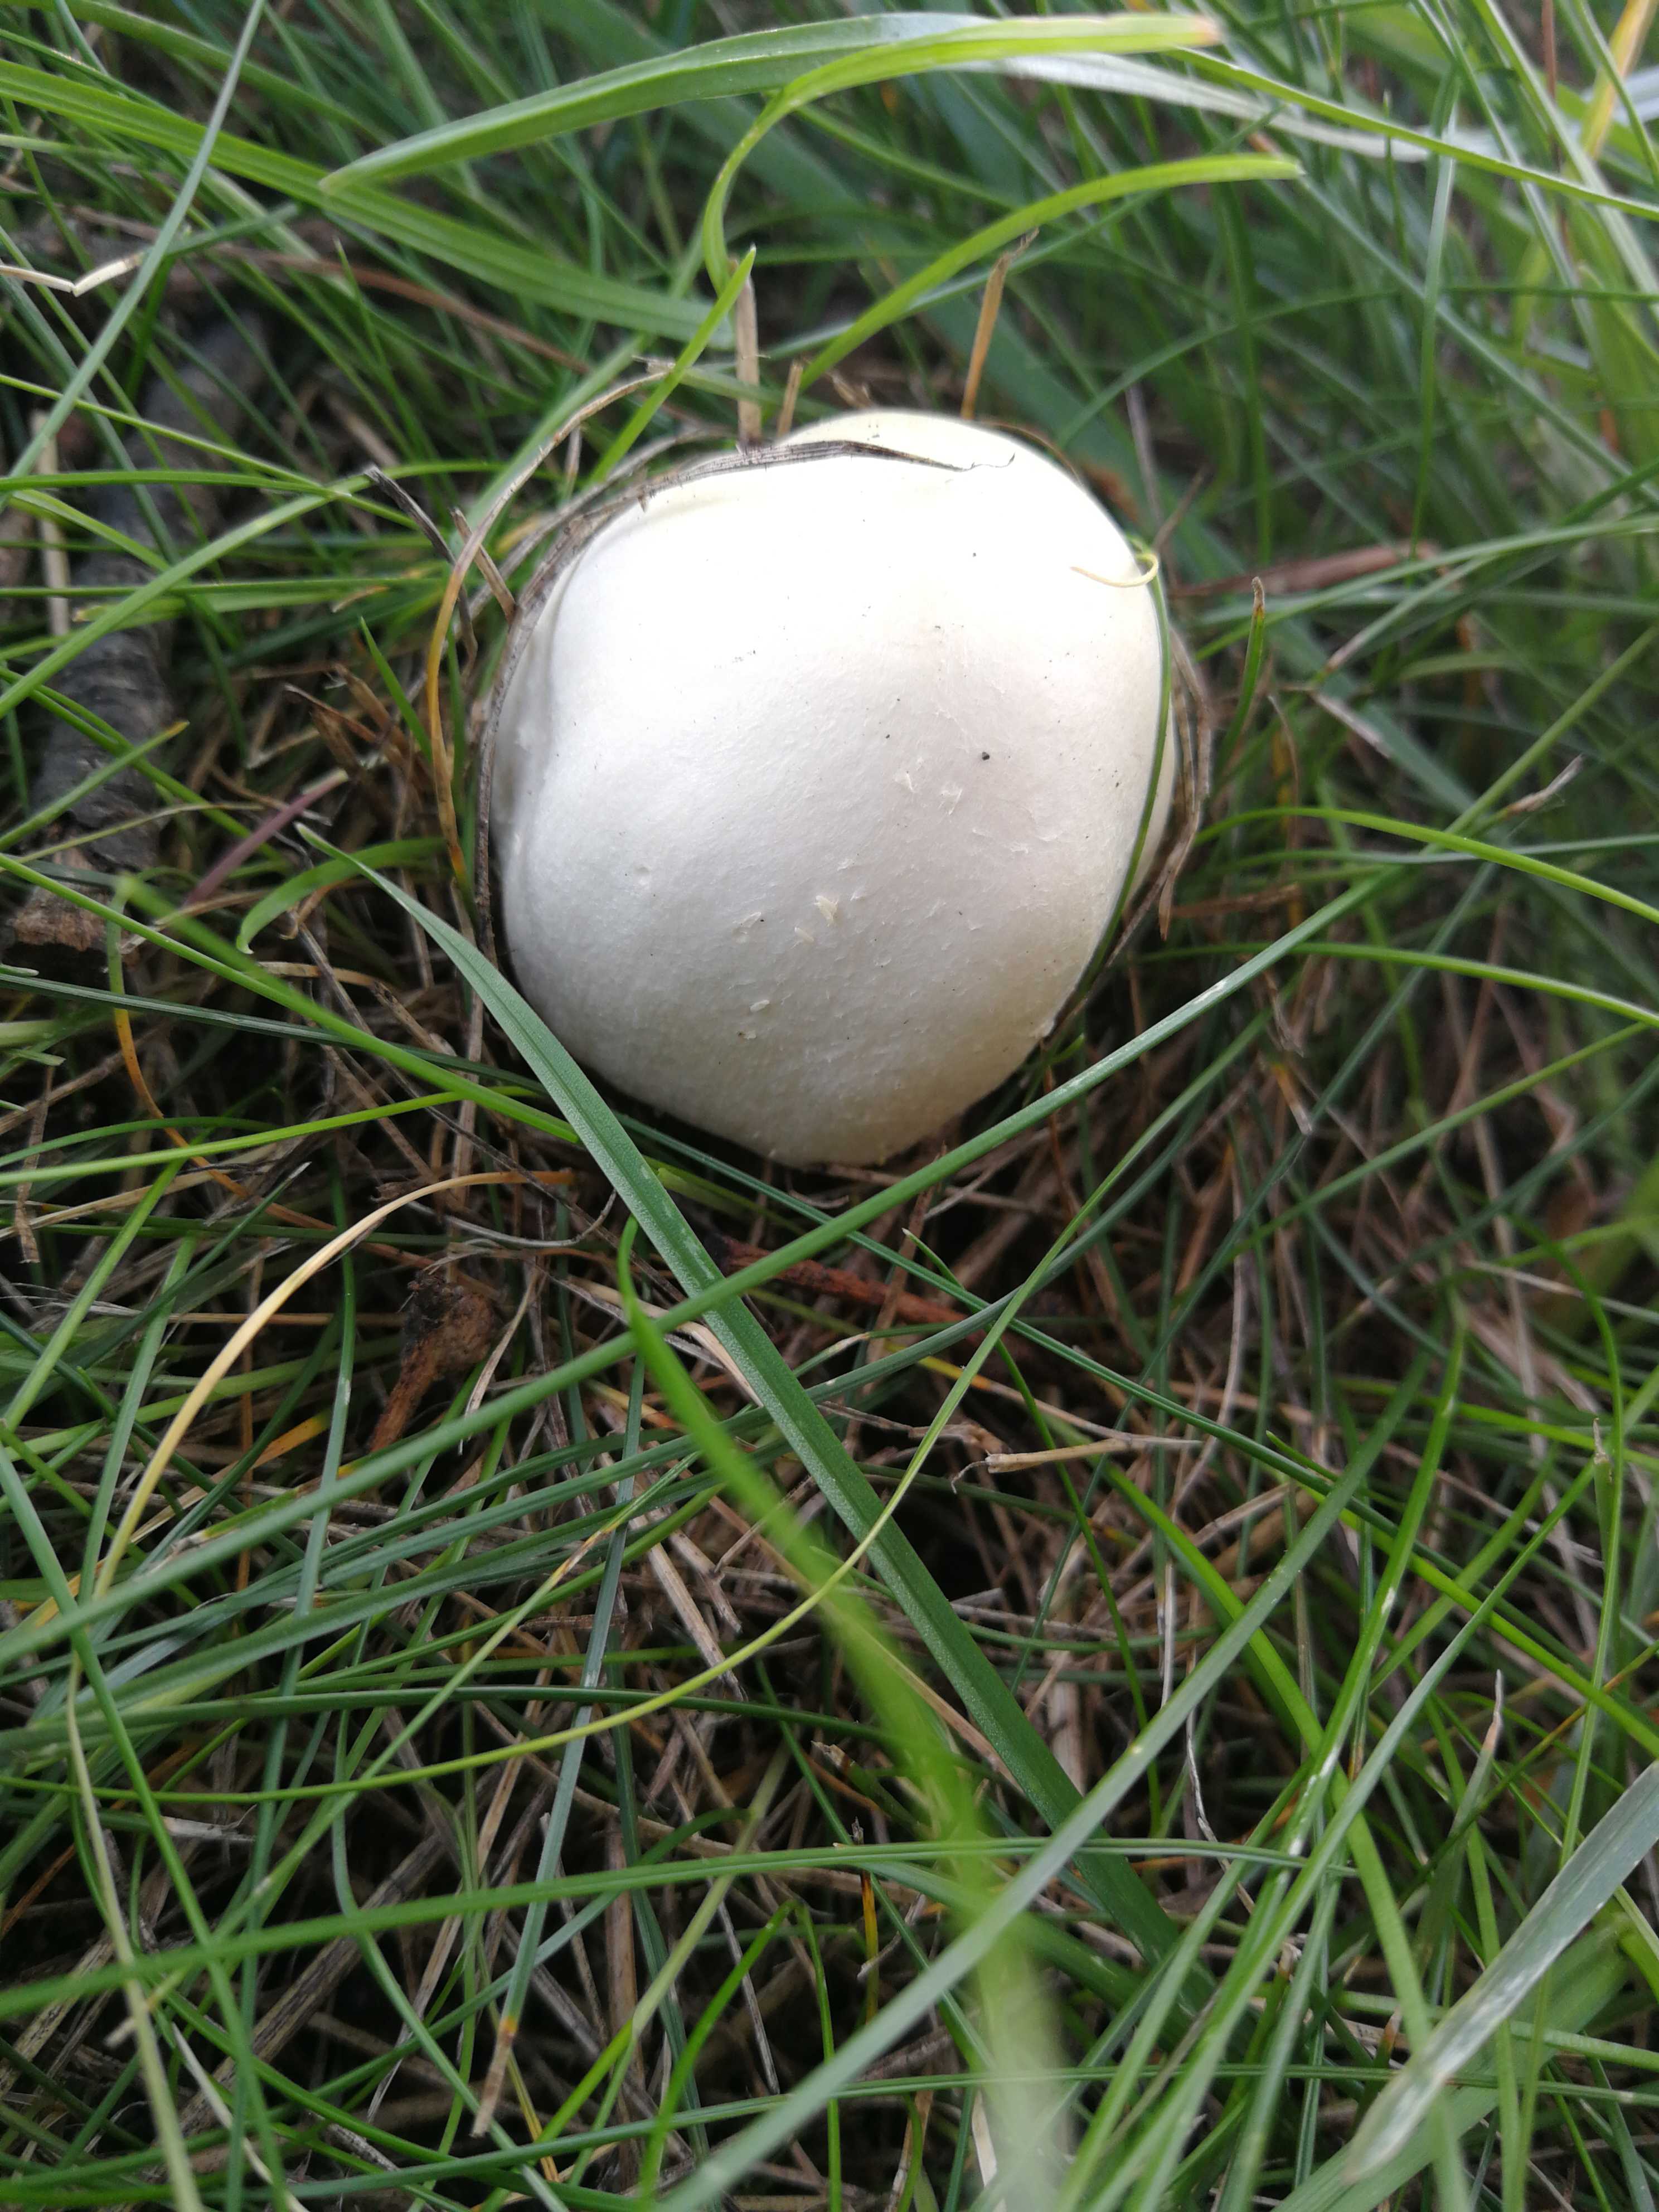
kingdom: Fungi
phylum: Basidiomycota
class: Agaricomycetes
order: Agaricales
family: Agaricaceae
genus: Agaricus
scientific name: Agaricus
